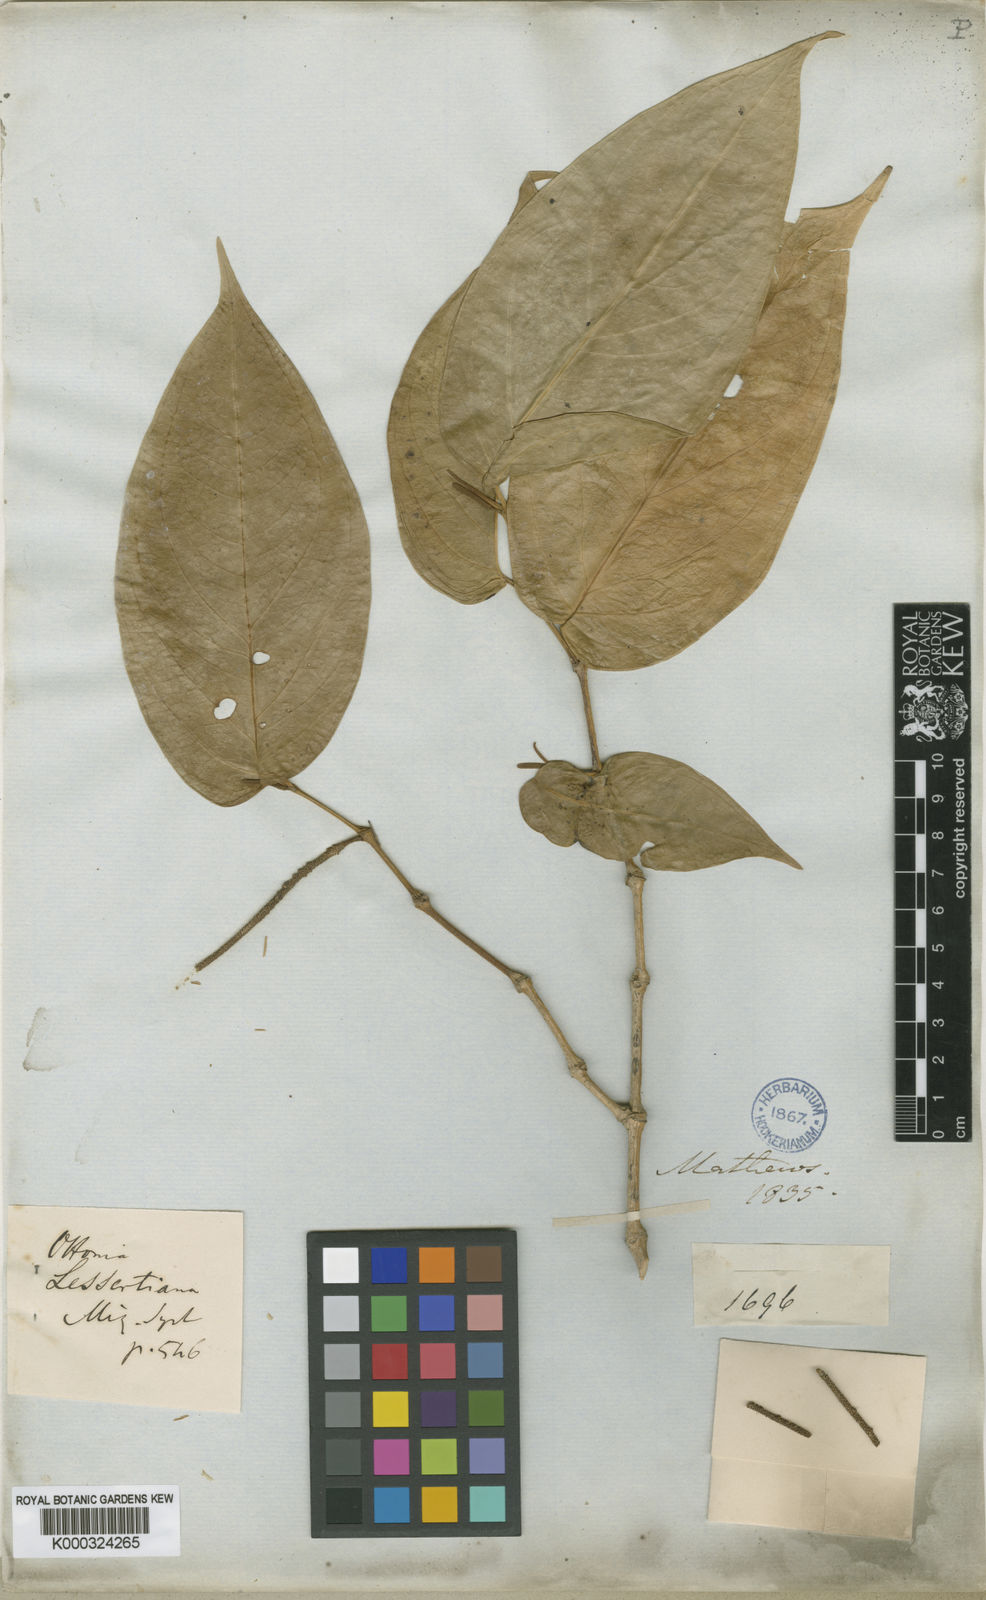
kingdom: Plantae
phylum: Tracheophyta
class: Magnoliopsida
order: Piperales
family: Piperaceae
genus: Piper
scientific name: Piper carpunya
